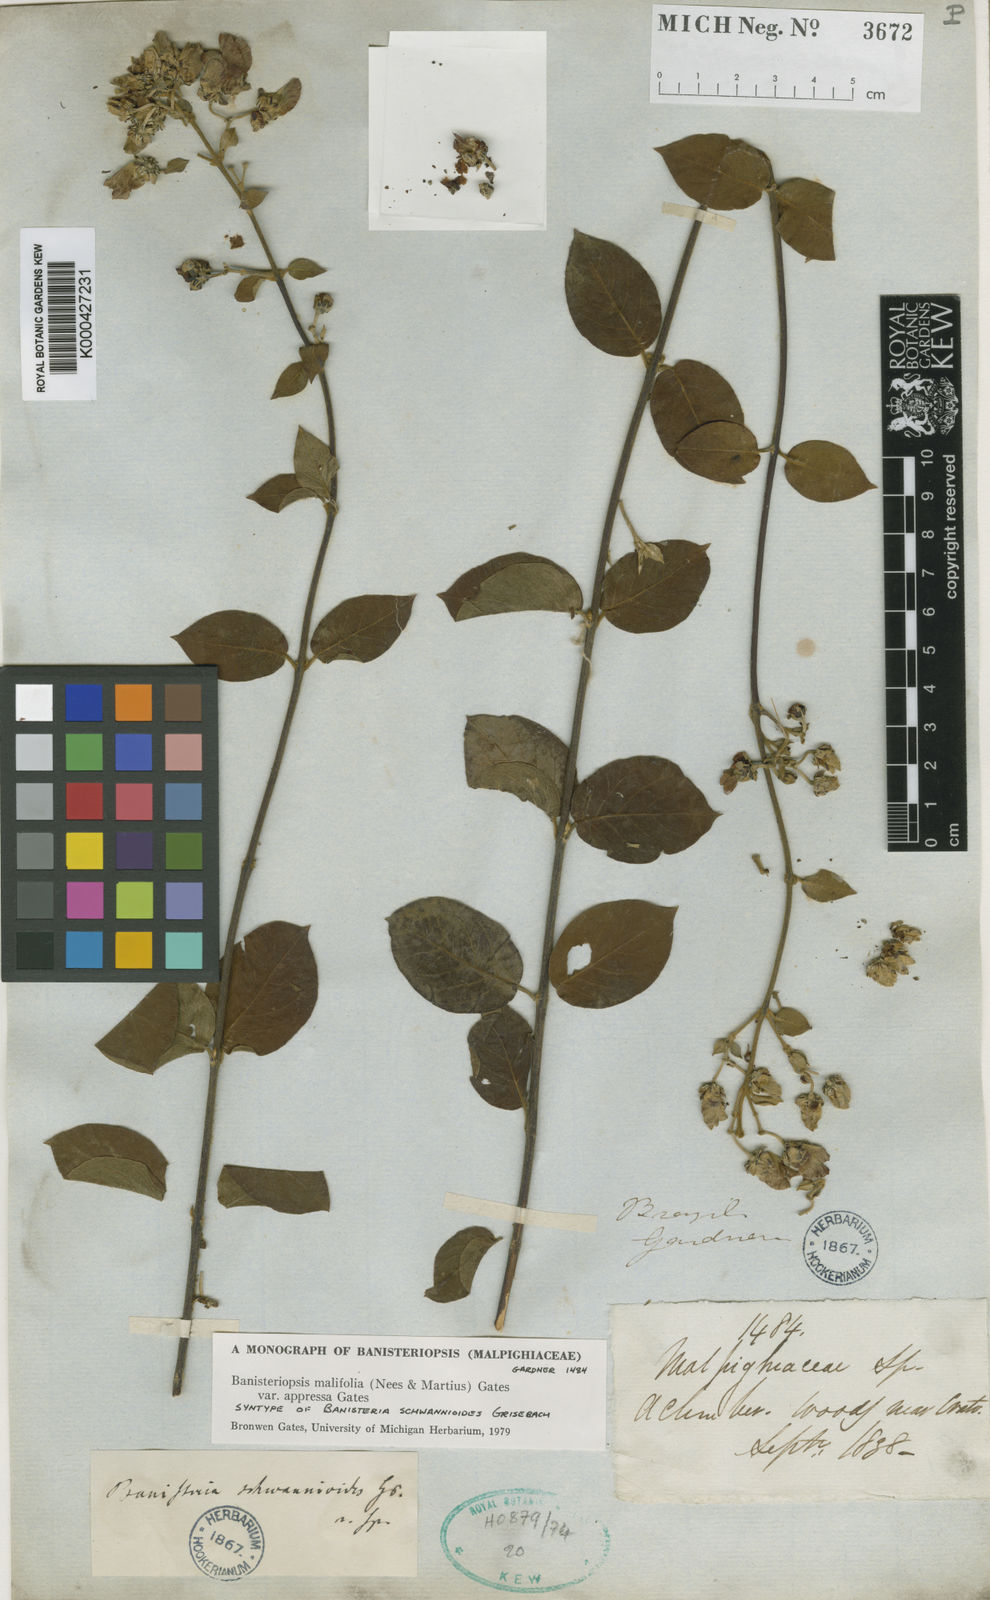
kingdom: Plantae
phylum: Tracheophyta
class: Magnoliopsida
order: Malpighiales
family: Malpighiaceae
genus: Banisteriopsis
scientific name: Banisteriopsis malifolia
